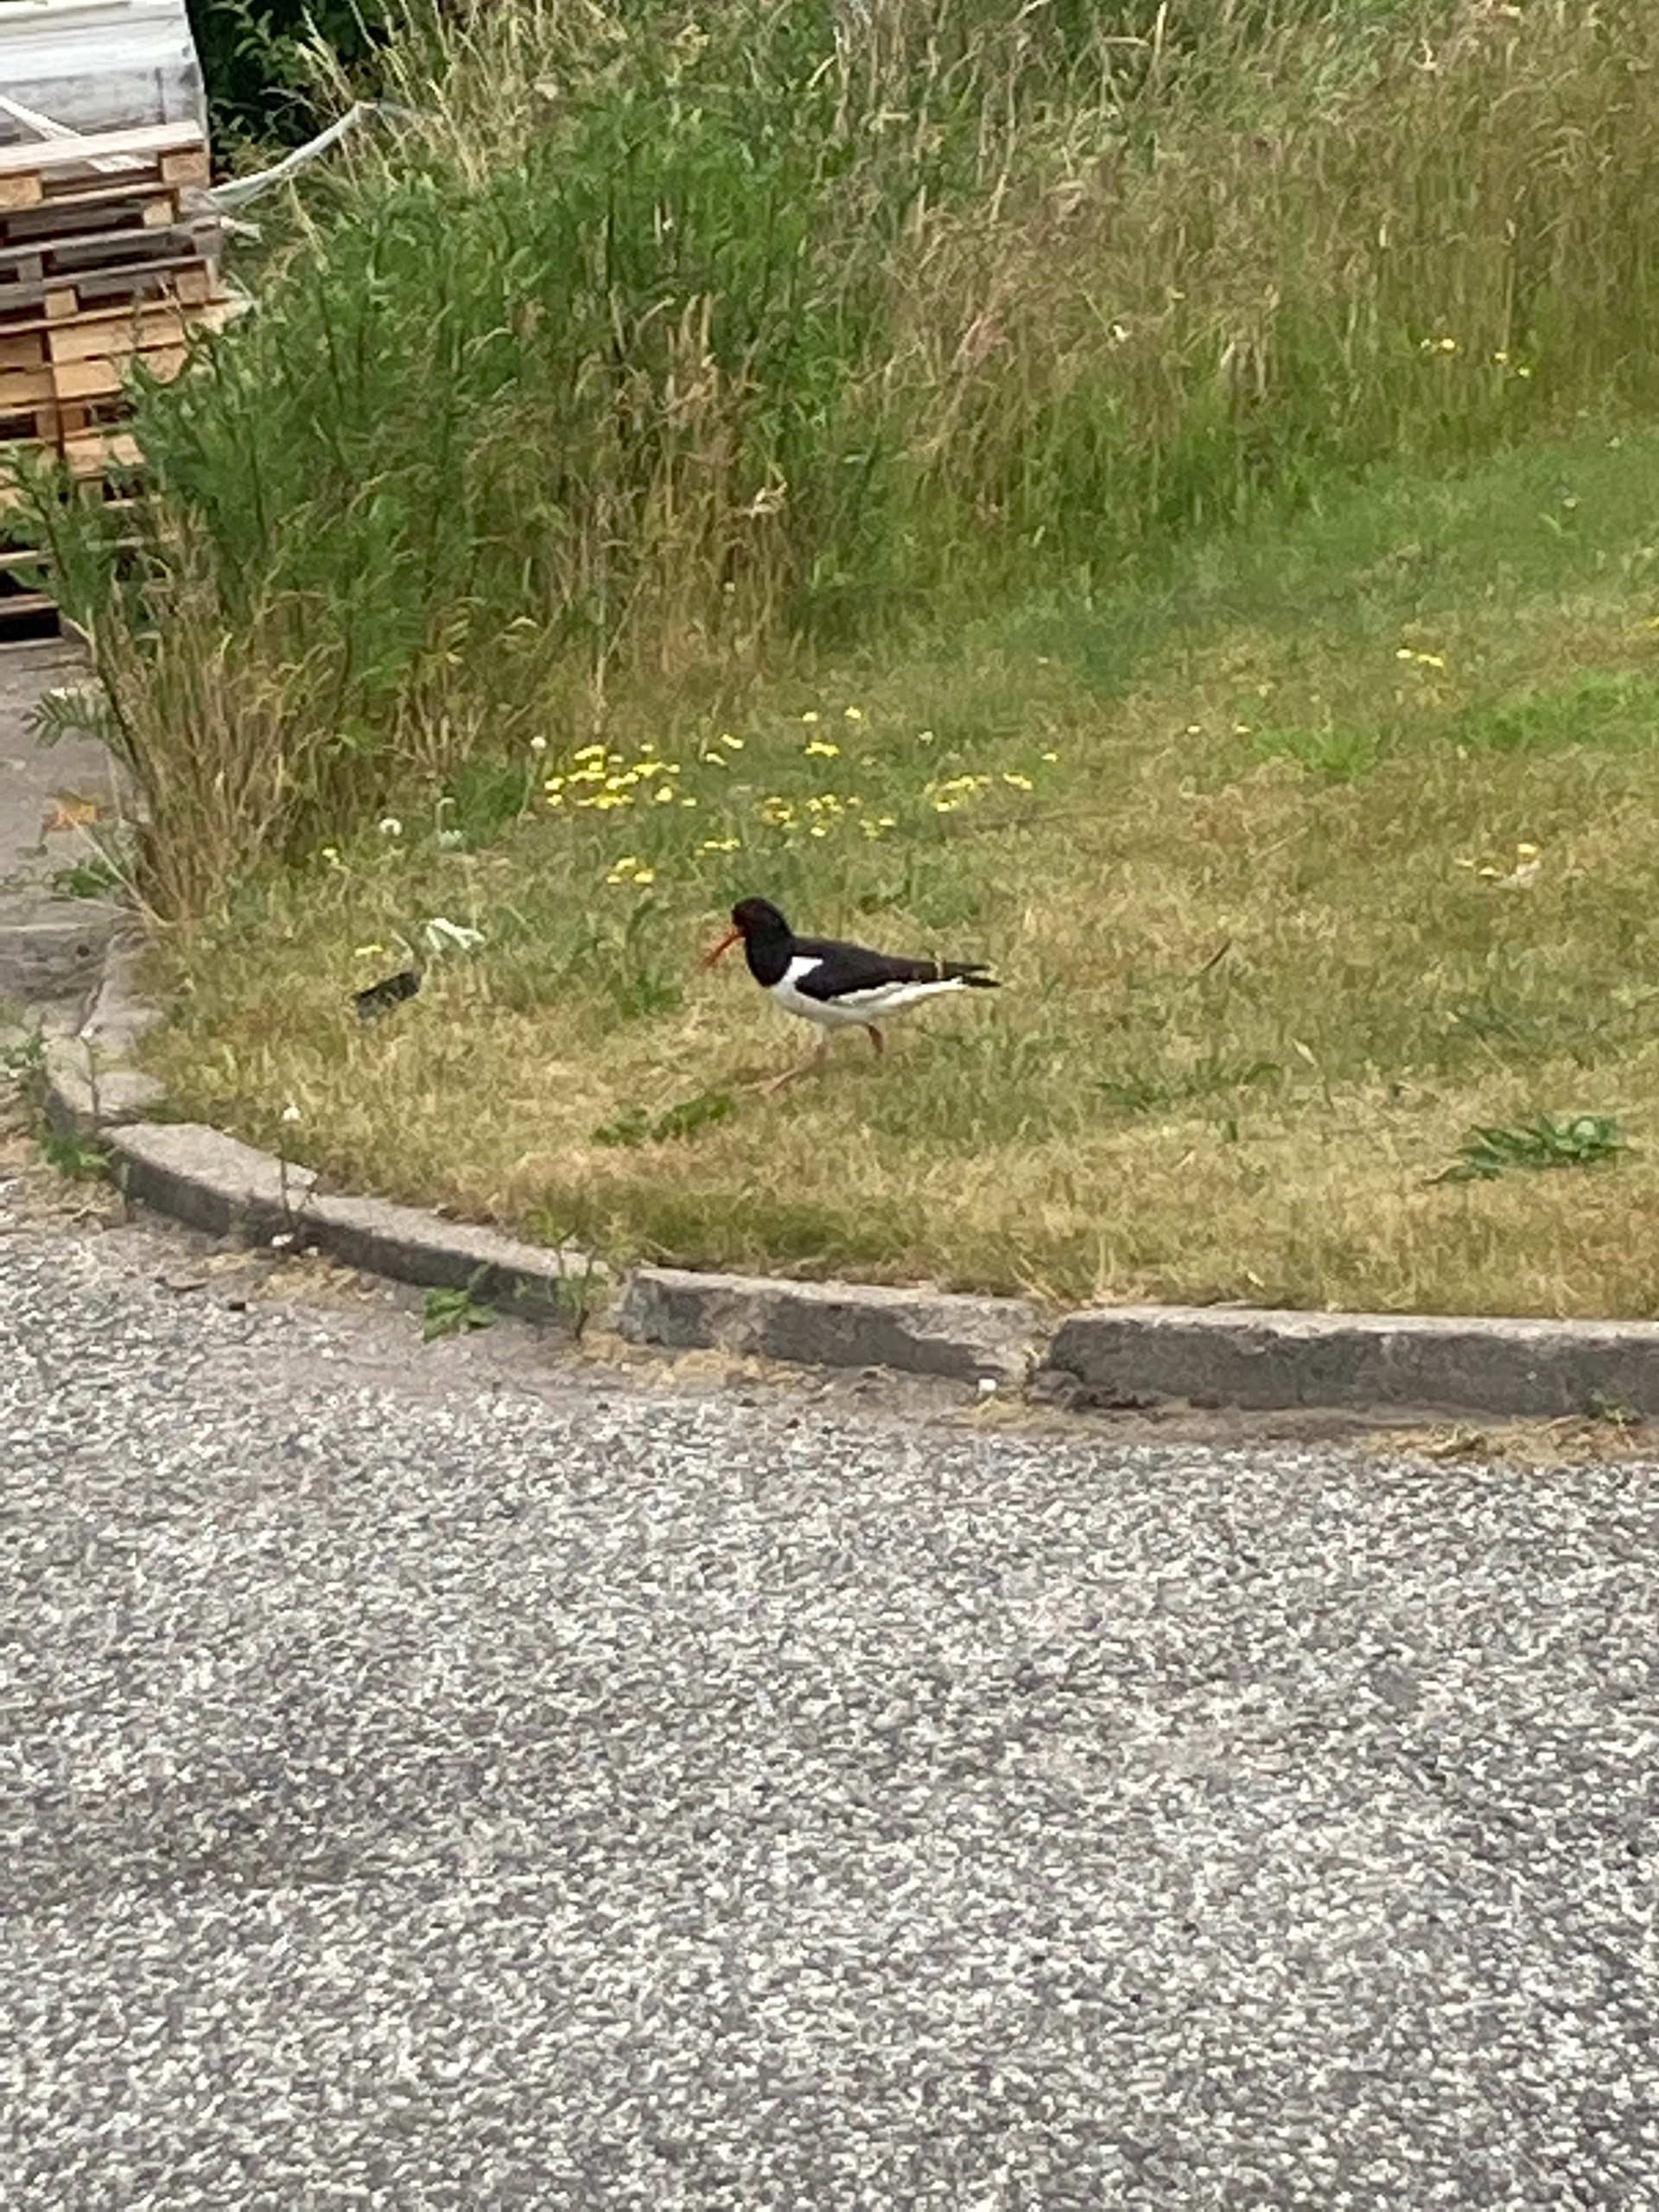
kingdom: Animalia
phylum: Chordata
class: Aves
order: Charadriiformes
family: Haematopodidae
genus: Haematopus
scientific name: Haematopus ostralegus
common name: Strandskade
